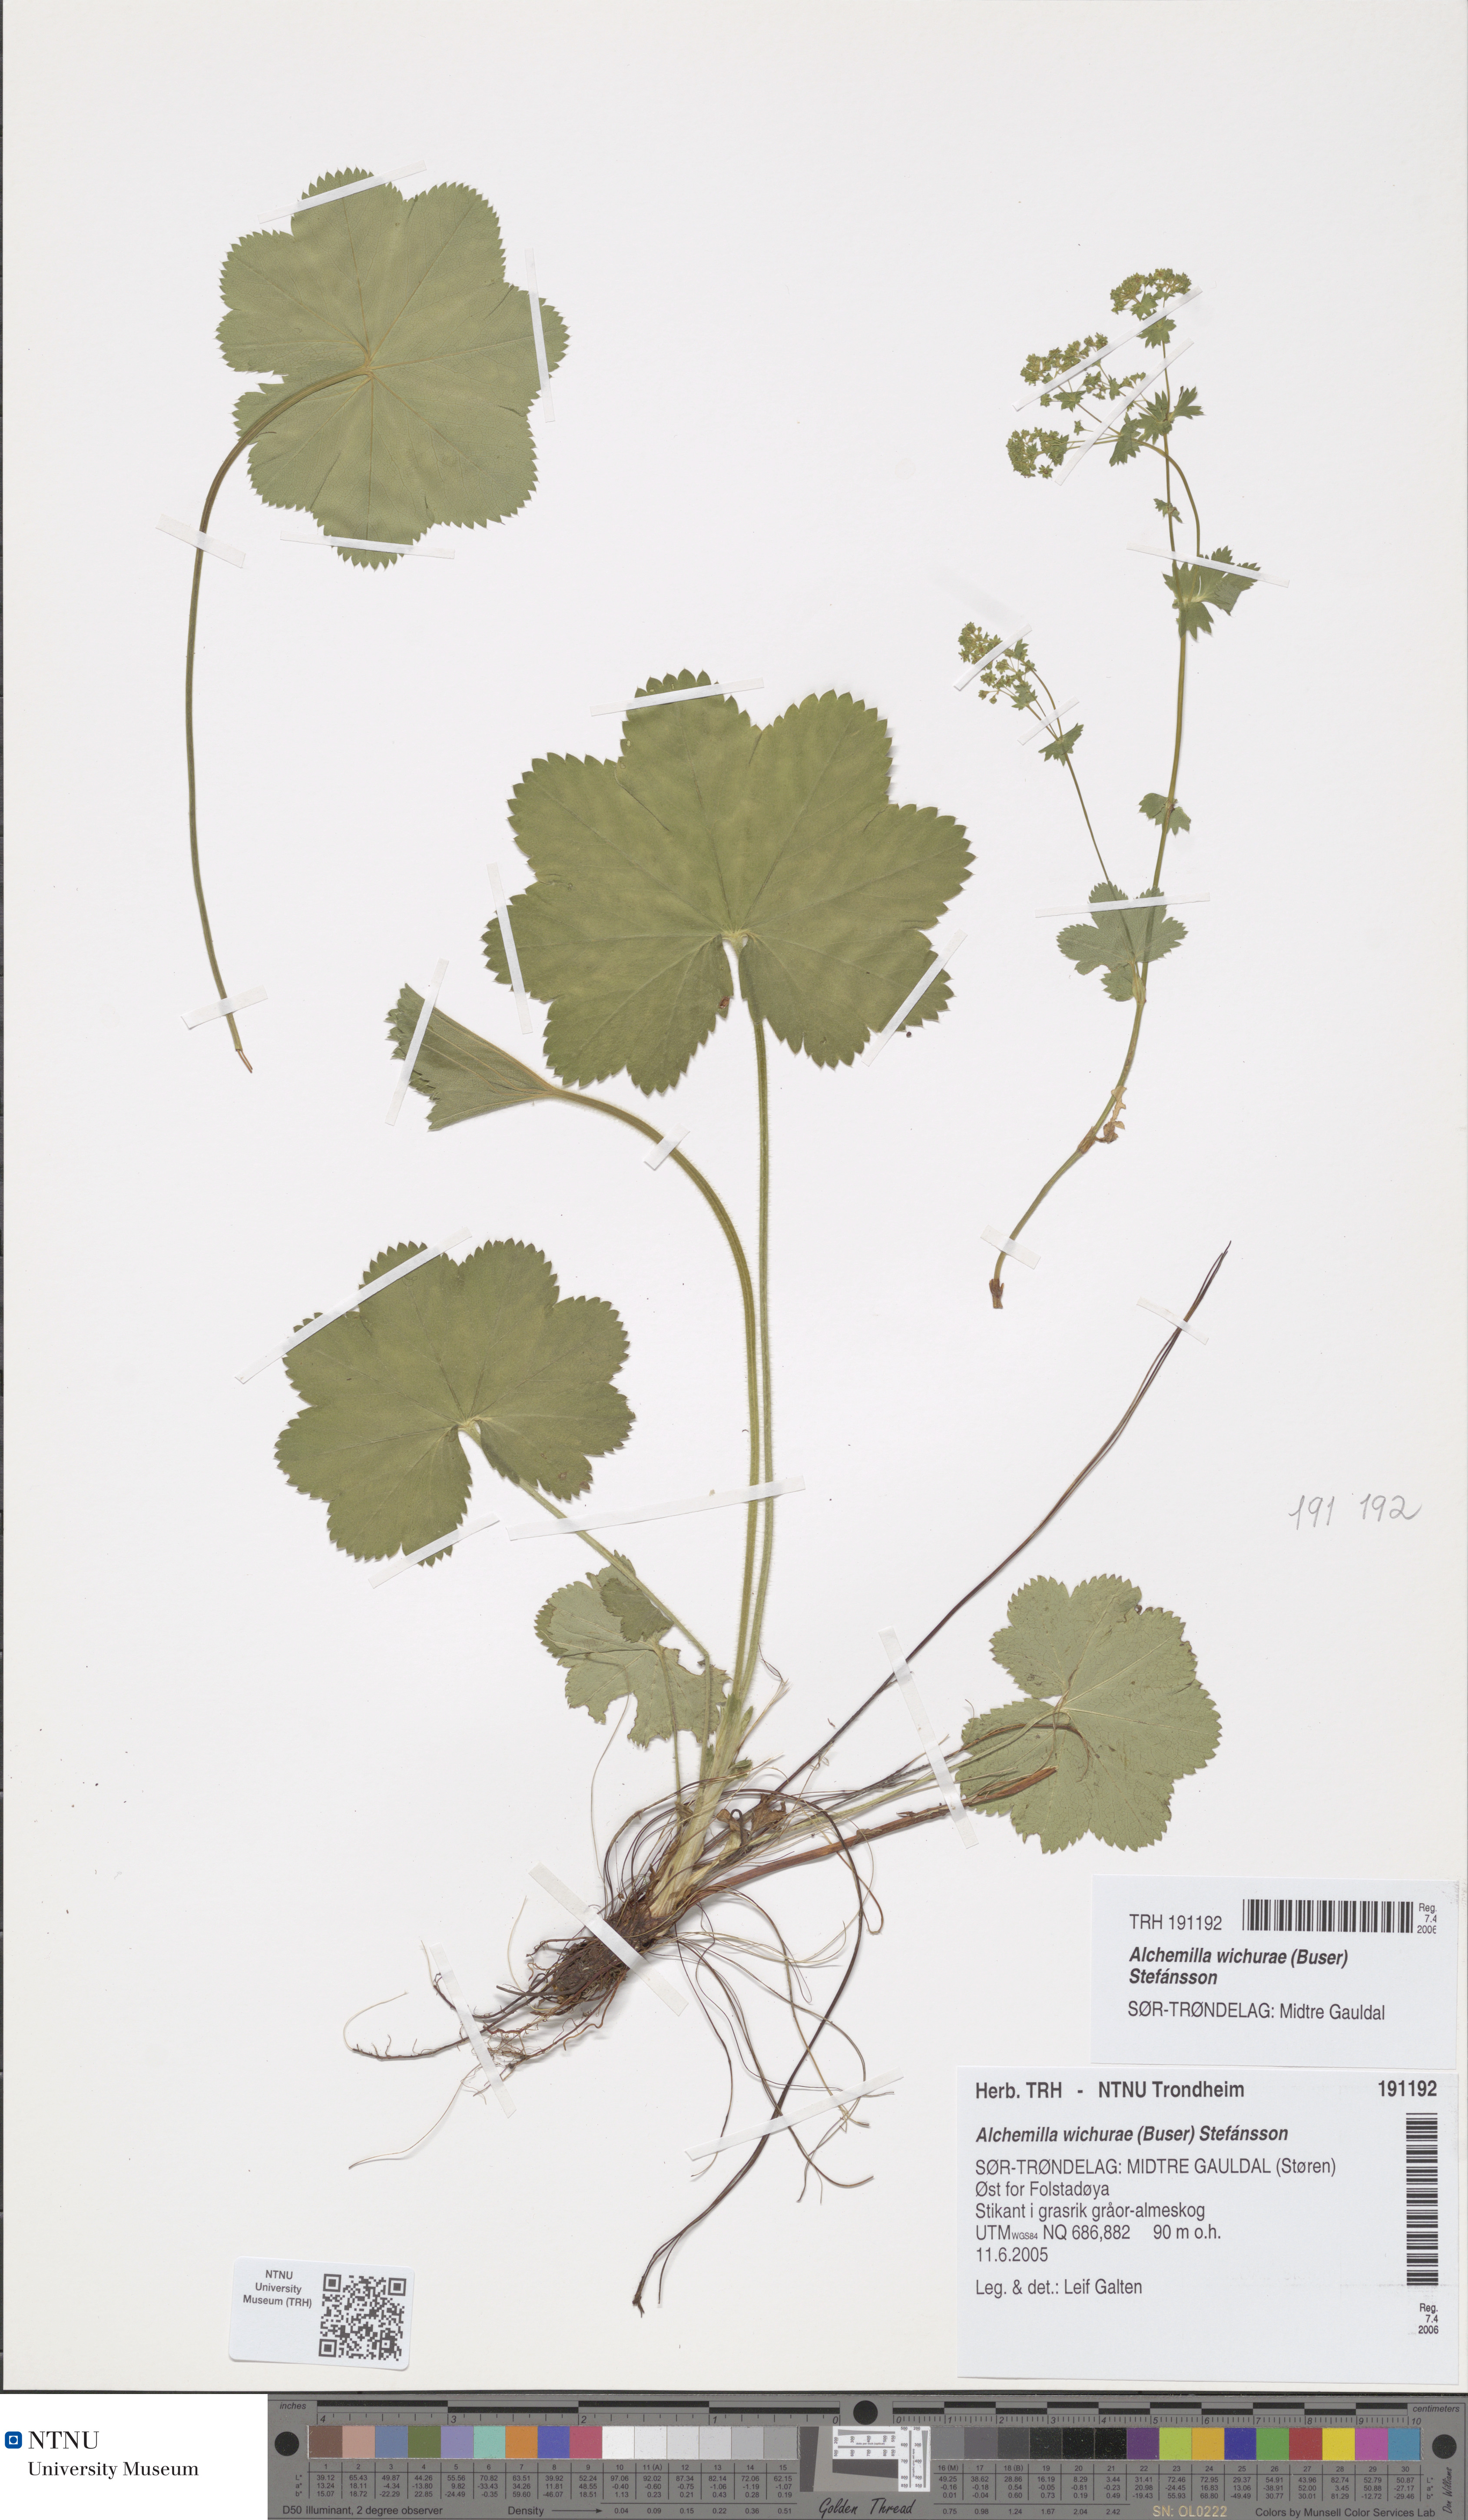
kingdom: Plantae
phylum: Tracheophyta
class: Magnoliopsida
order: Rosales
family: Rosaceae
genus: Alchemilla
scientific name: Alchemilla wichurae
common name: Rock lady's mantle
